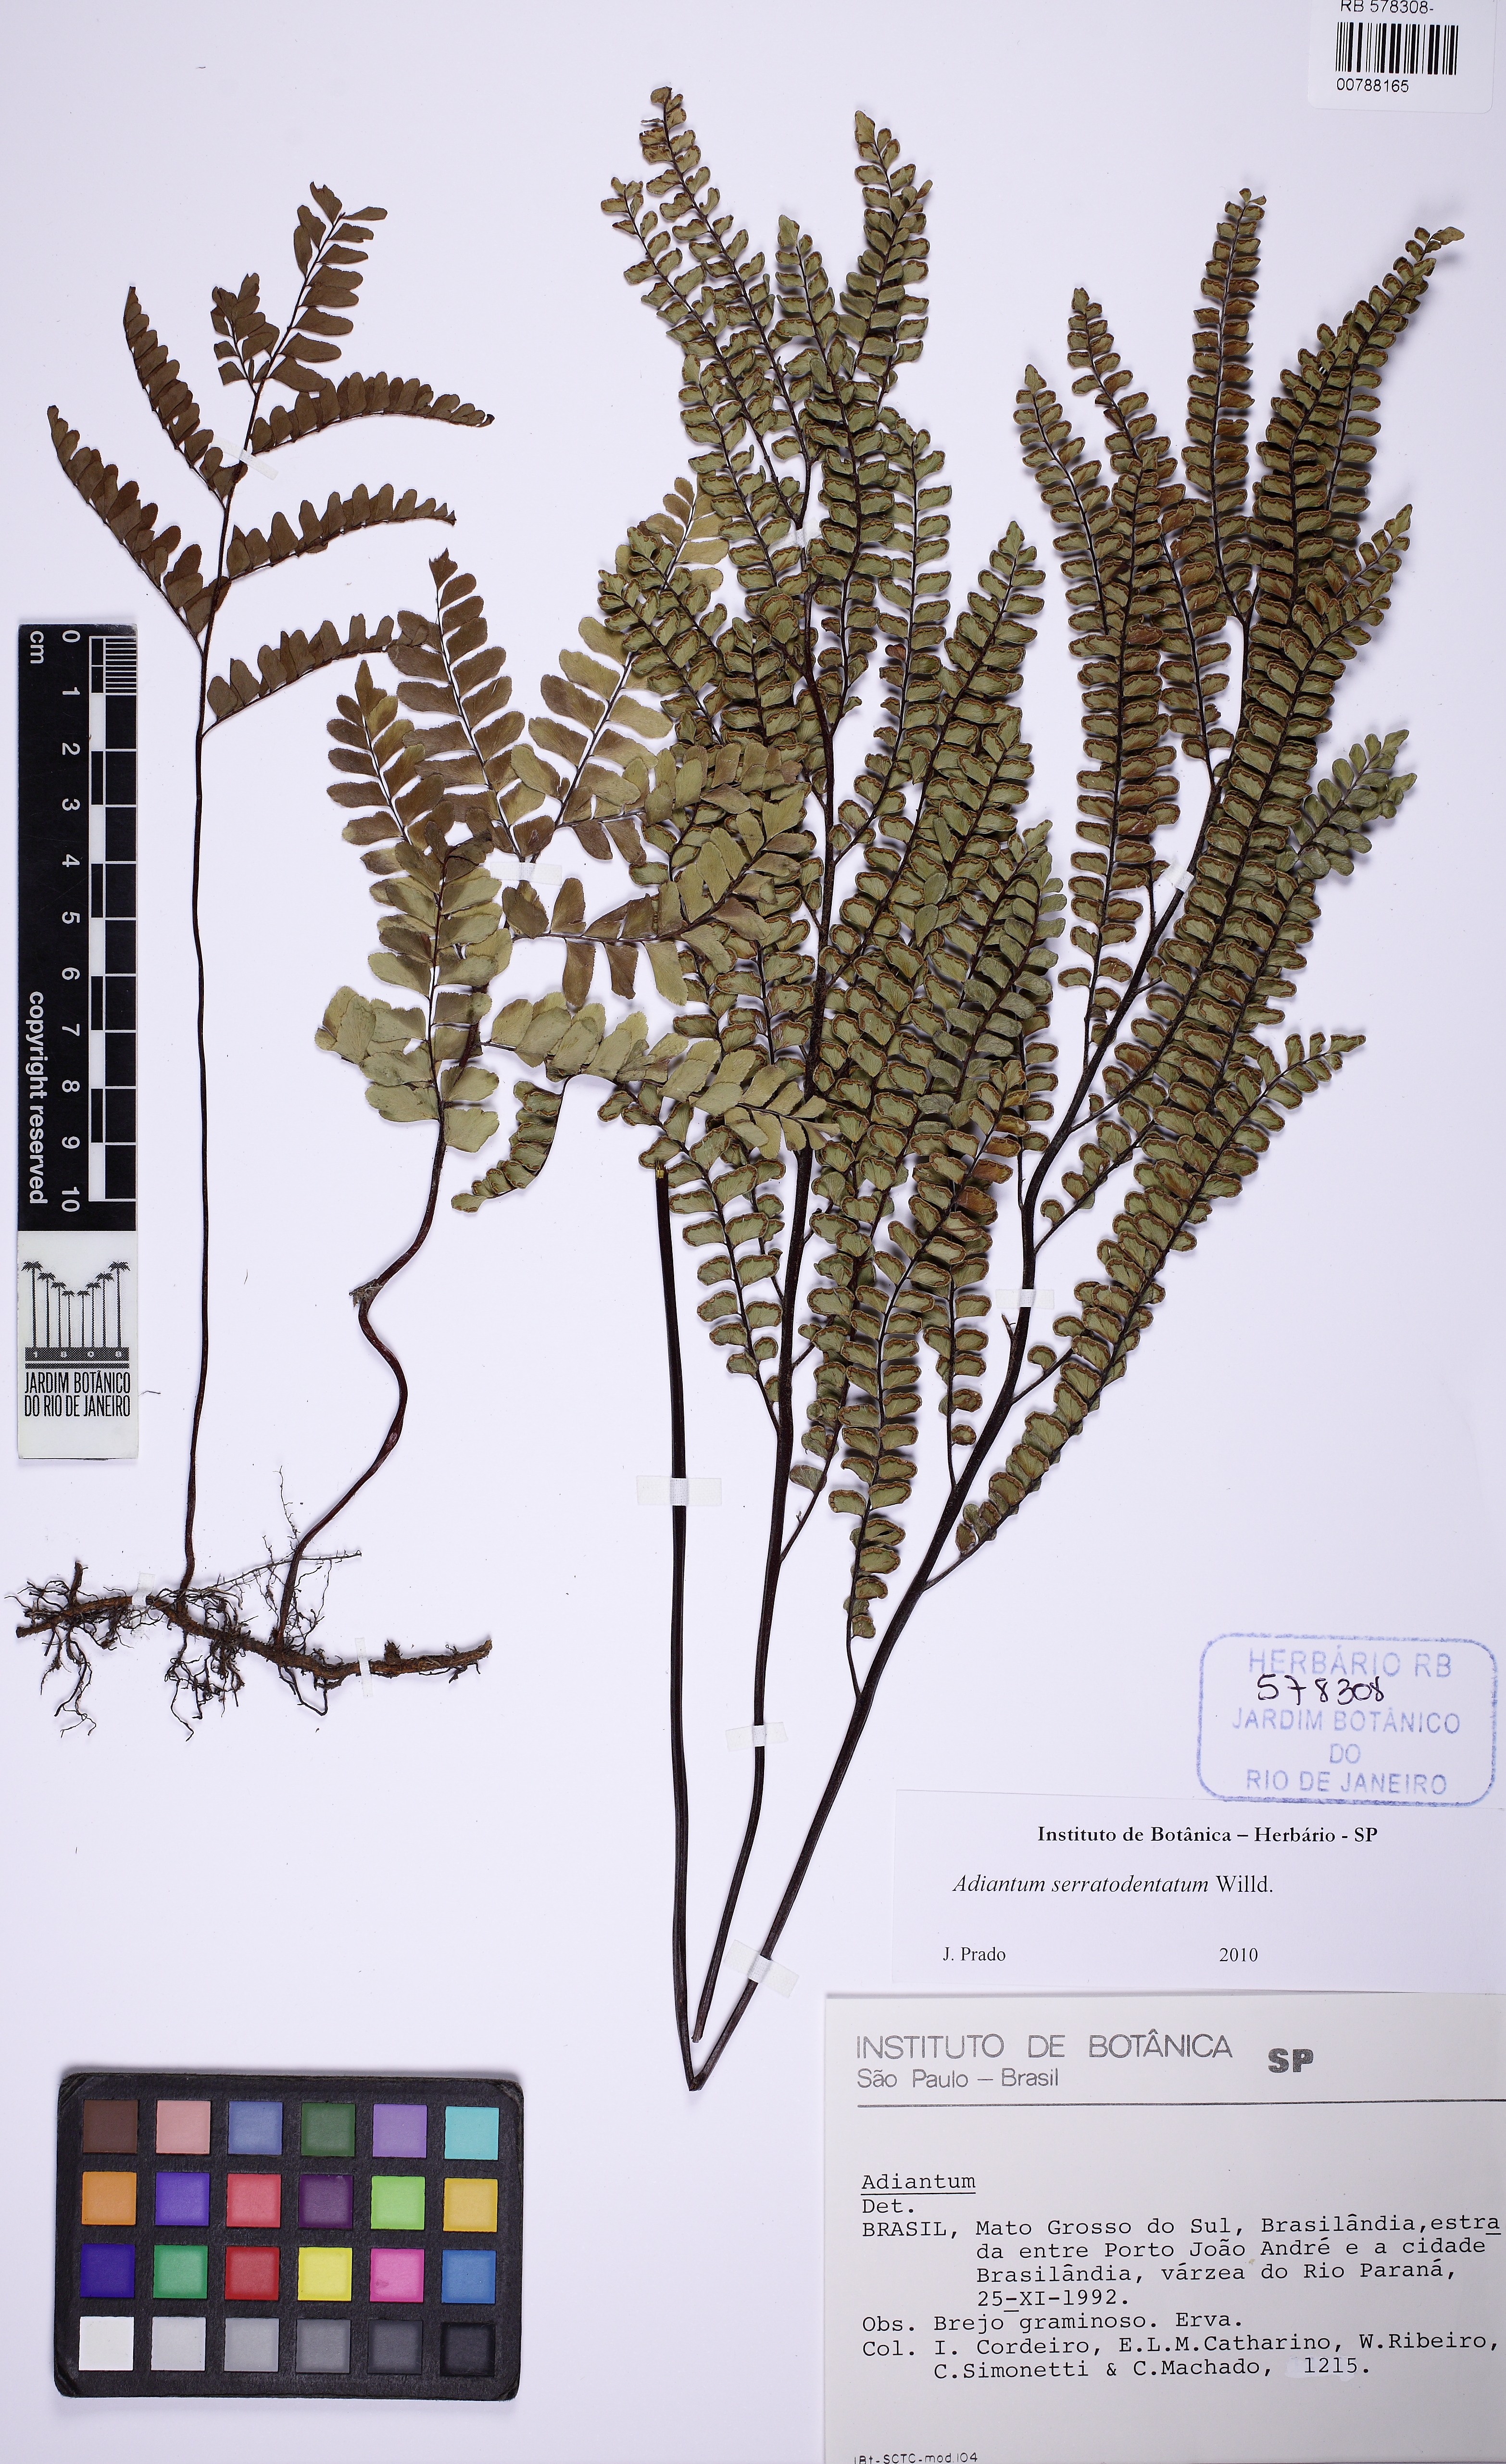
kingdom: Plantae
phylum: Tracheophyta
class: Polypodiopsida
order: Polypodiales
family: Pteridaceae
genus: Adiantum
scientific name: Adiantum serratodentatum
